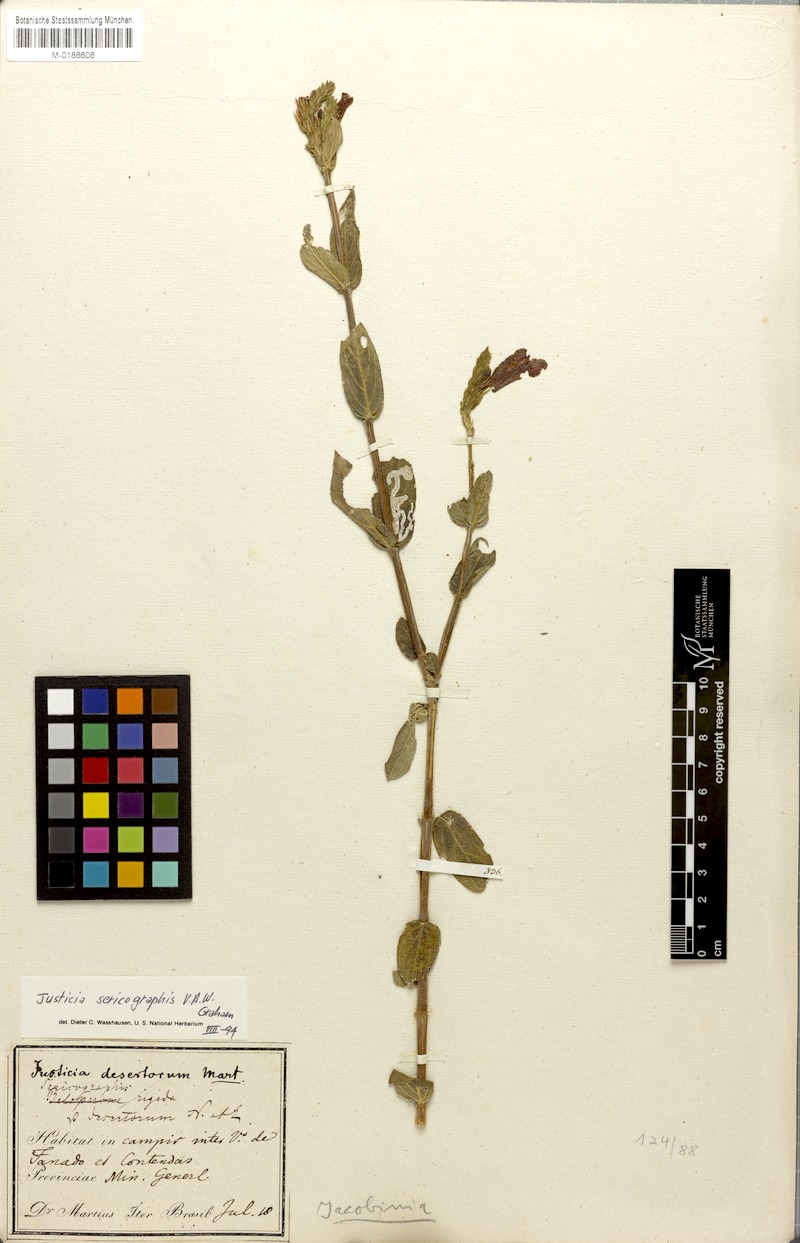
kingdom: Plantae
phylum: Tracheophyta
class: Magnoliopsida
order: Lamiales
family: Acanthaceae
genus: Dianthera
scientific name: Dianthera rigida
